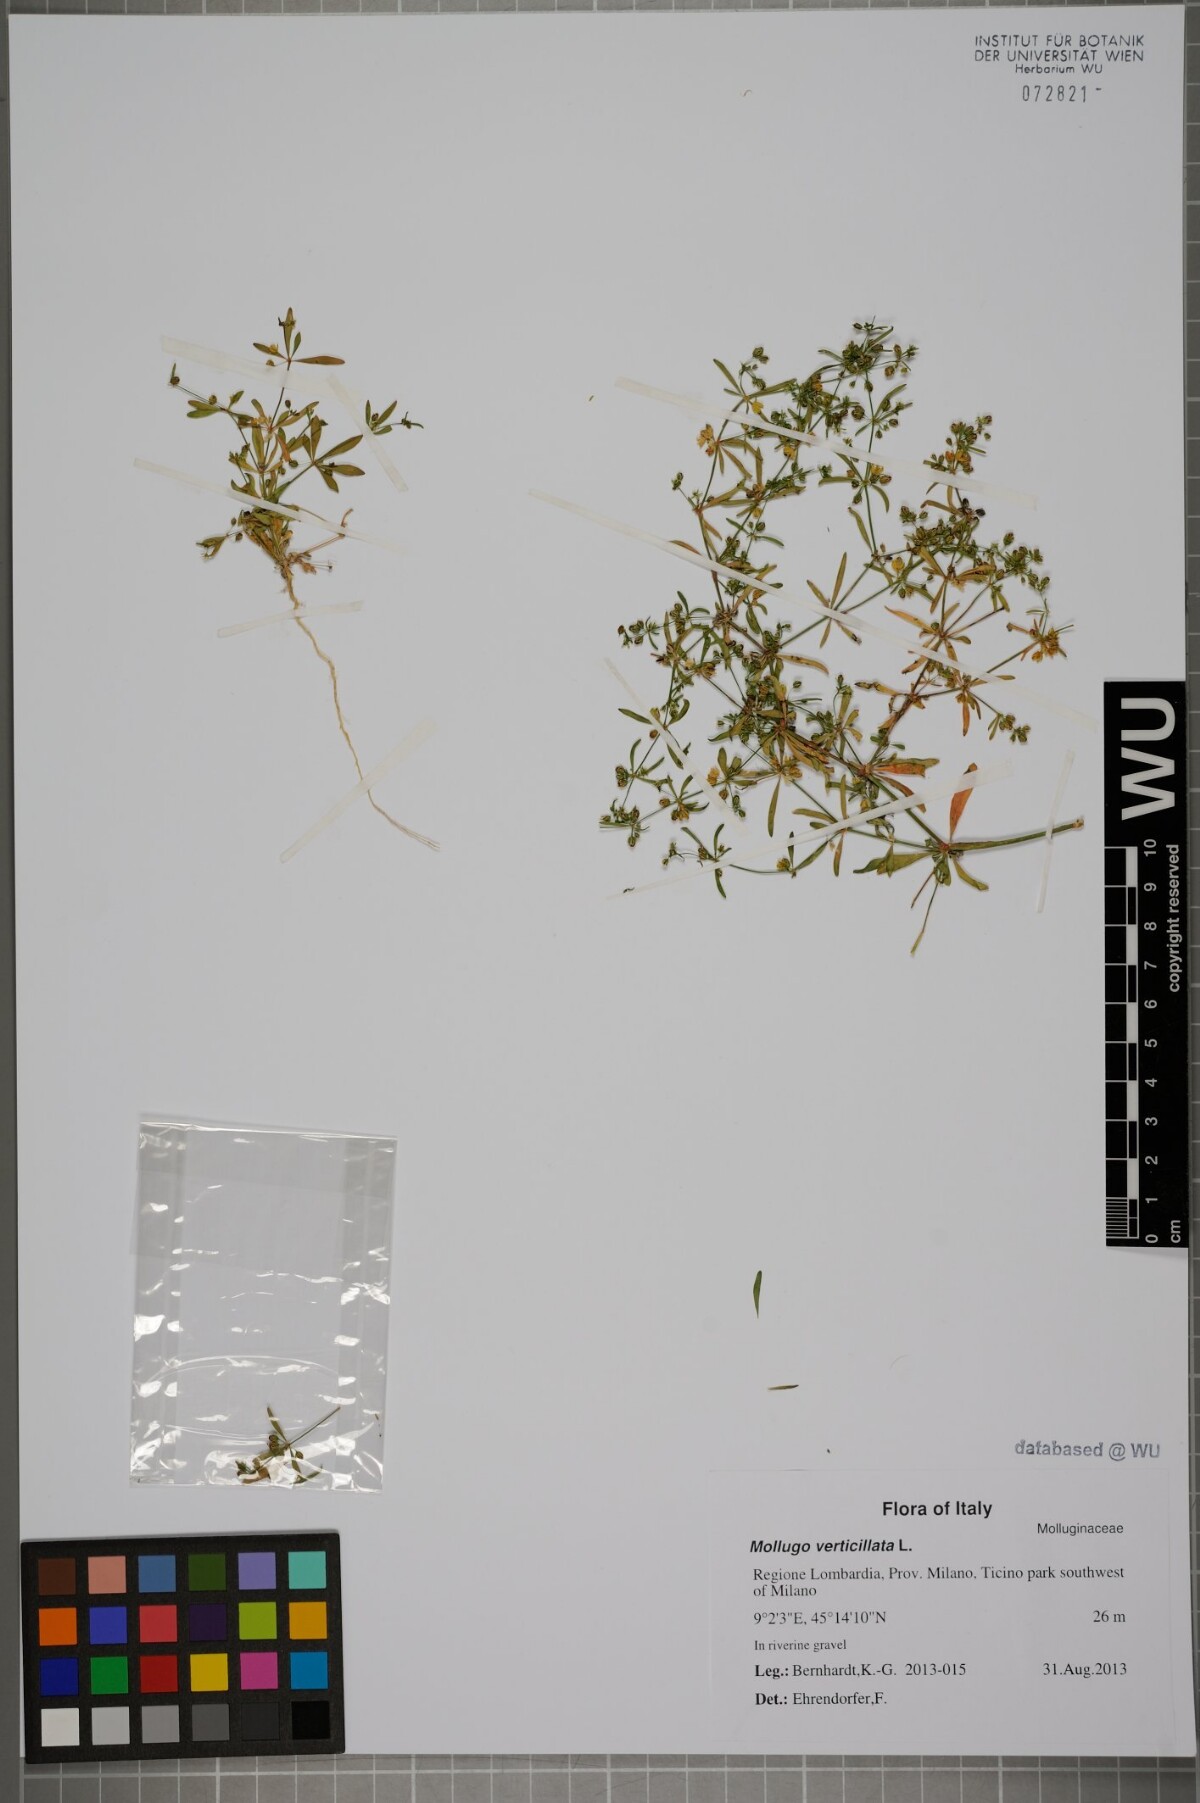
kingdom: Plantae
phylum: Tracheophyta
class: Magnoliopsida
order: Caryophyllales
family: Molluginaceae
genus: Mollugo
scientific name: Mollugo verticillata
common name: Green carpetweed
